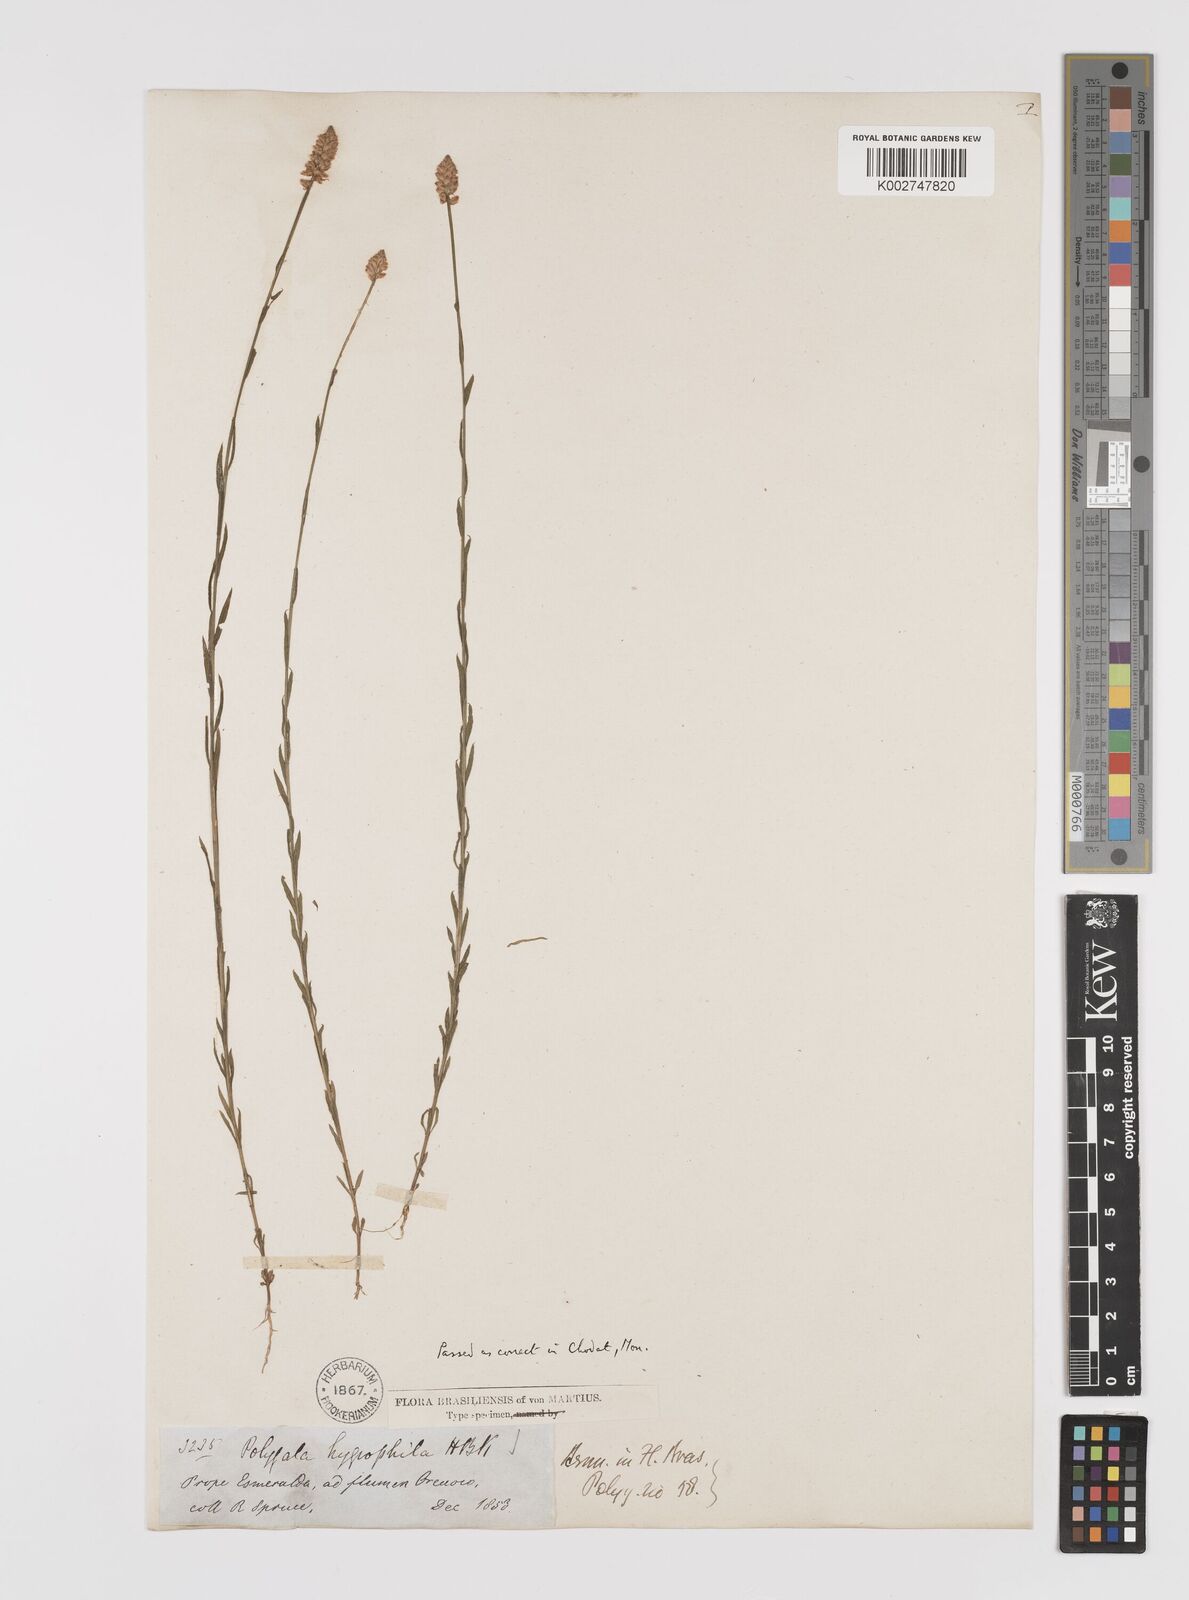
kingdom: Plantae
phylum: Tracheophyta
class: Magnoliopsida
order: Fabales
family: Polygalaceae
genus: Polygala
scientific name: Polygala hygrophila
